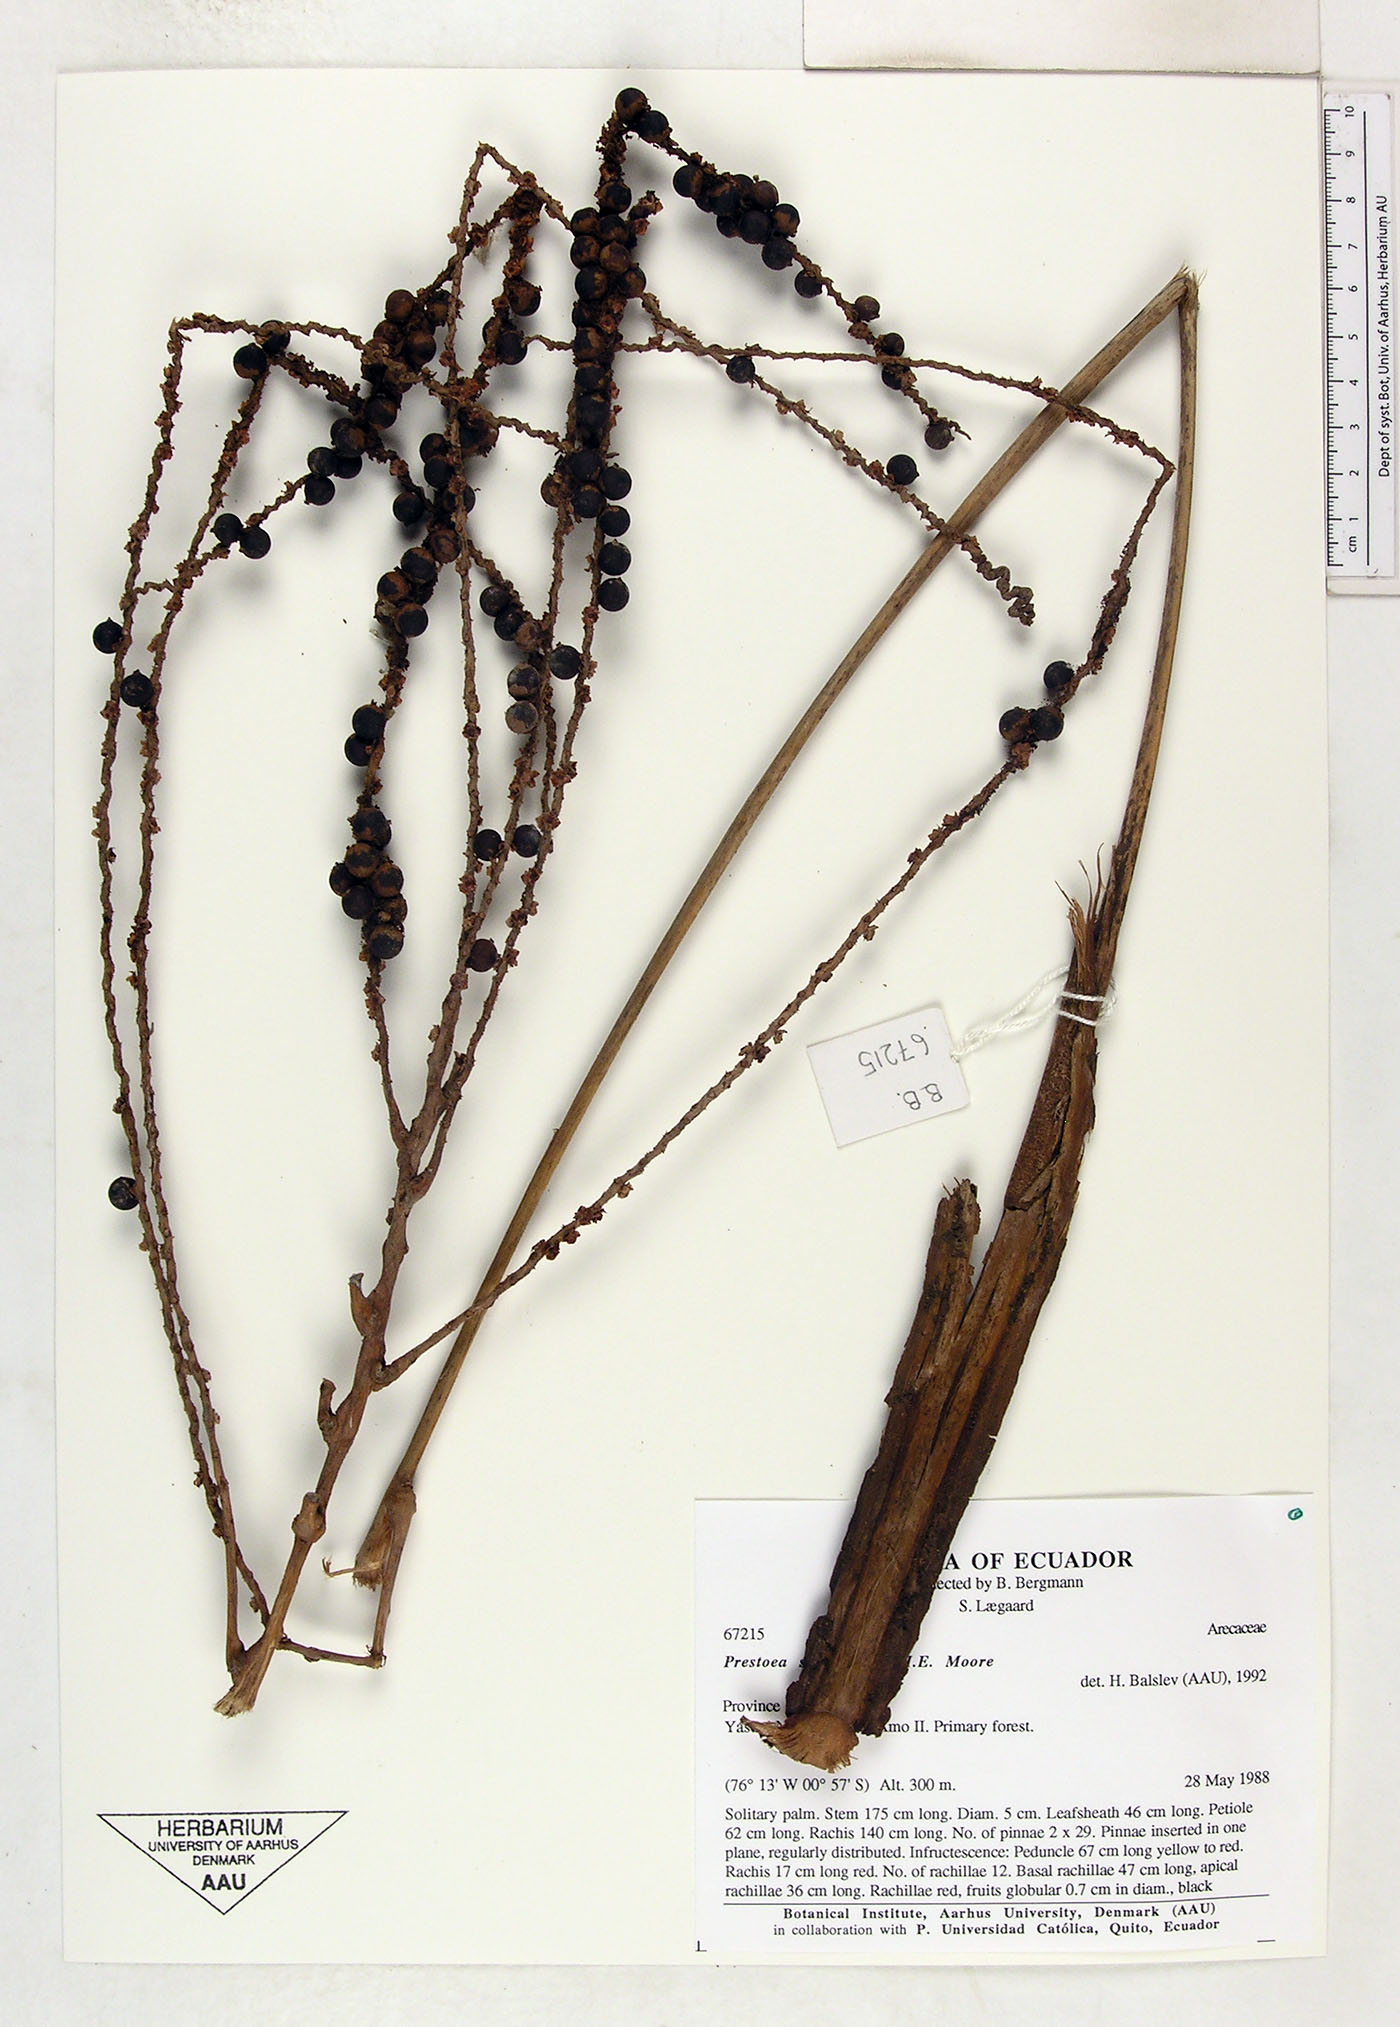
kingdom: Plantae
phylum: Tracheophyta
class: Liliopsida
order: Arecales
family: Arecaceae
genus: Prestoea
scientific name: Prestoea schultzeana
